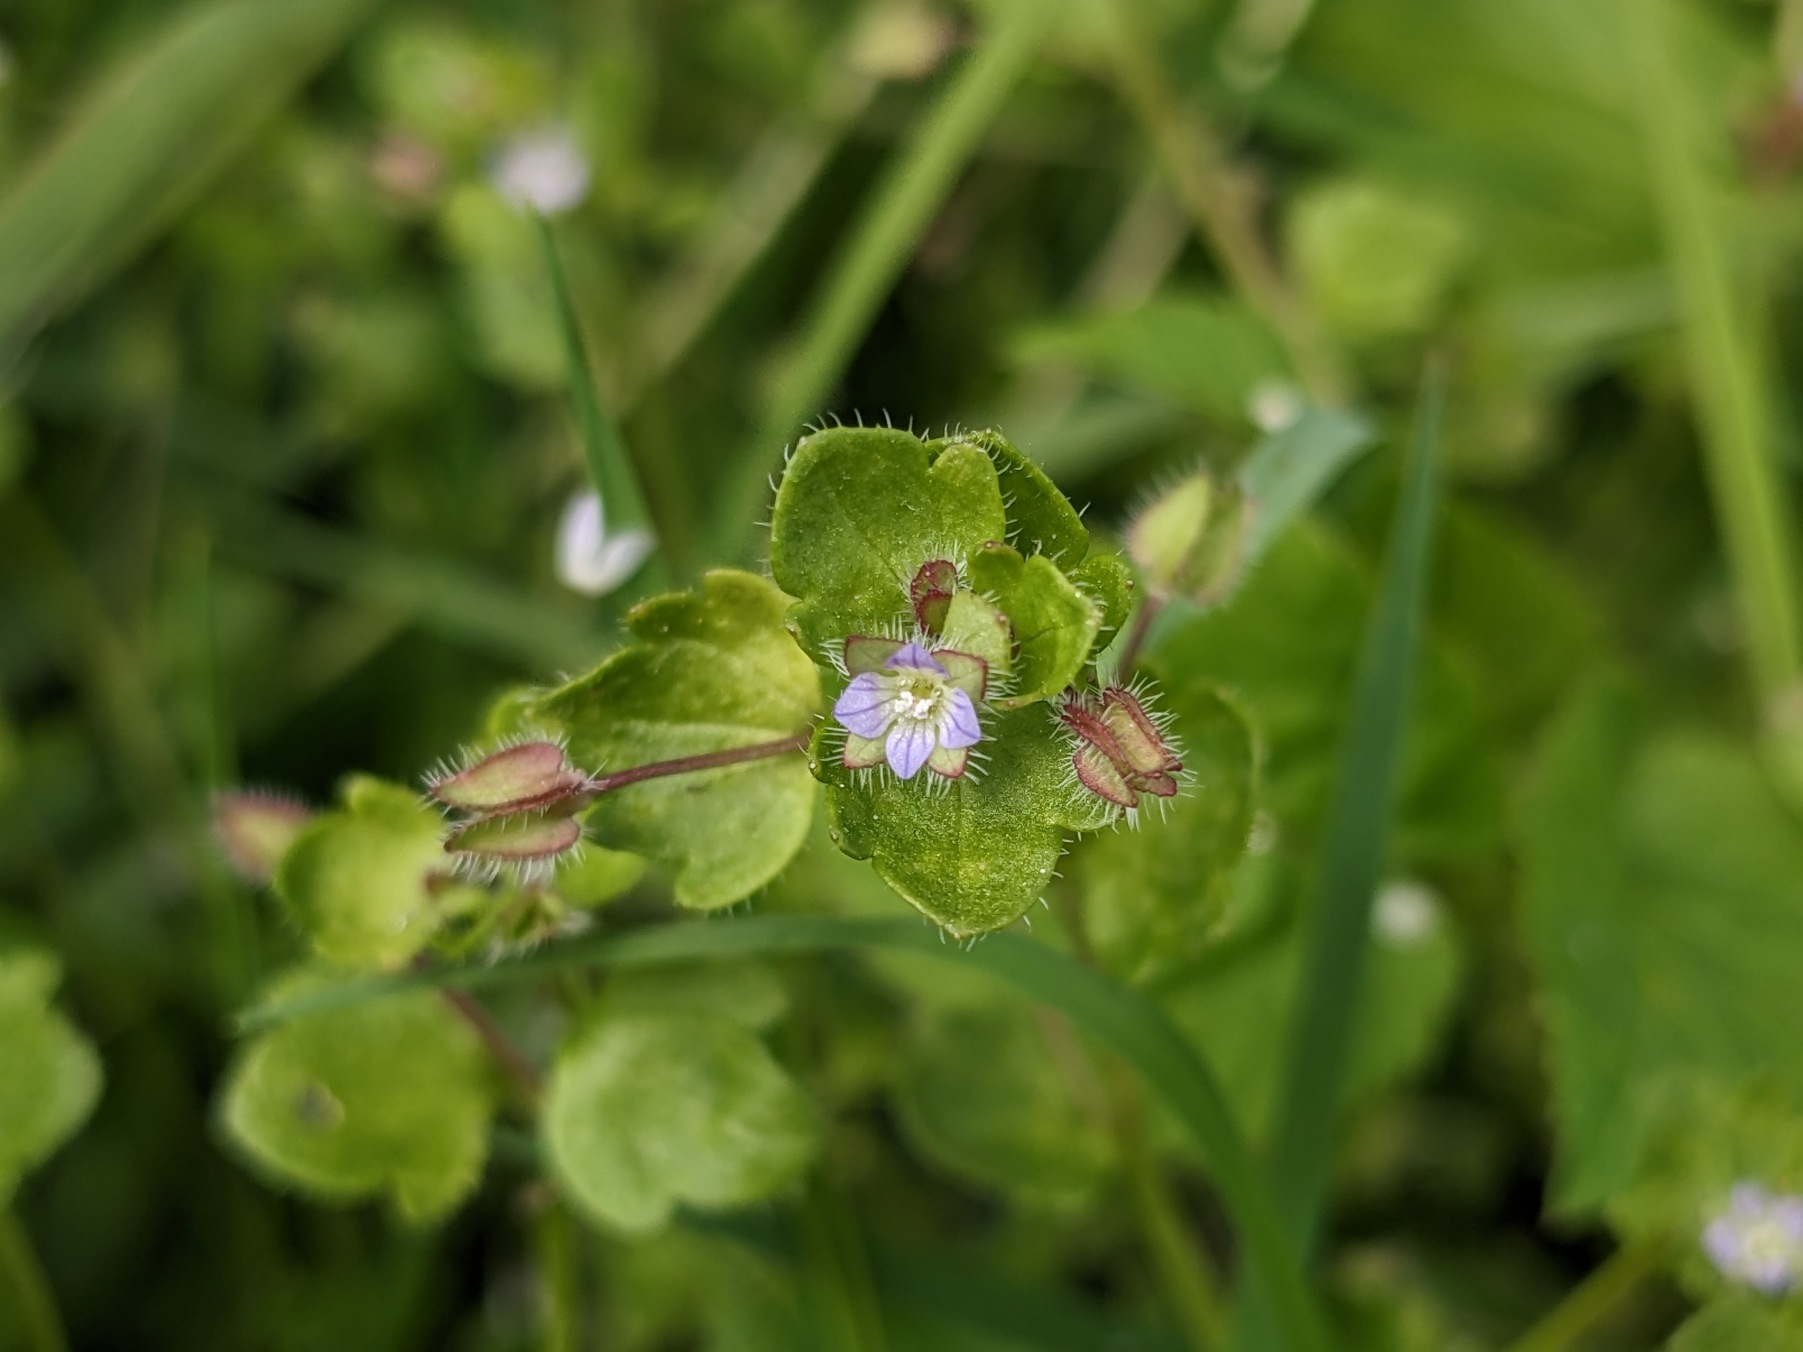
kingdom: Plantae
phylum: Tracheophyta
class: Magnoliopsida
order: Lamiales
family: Plantaginaceae
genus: Veronica
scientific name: Veronica sublobata
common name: Krat-ærenpris
